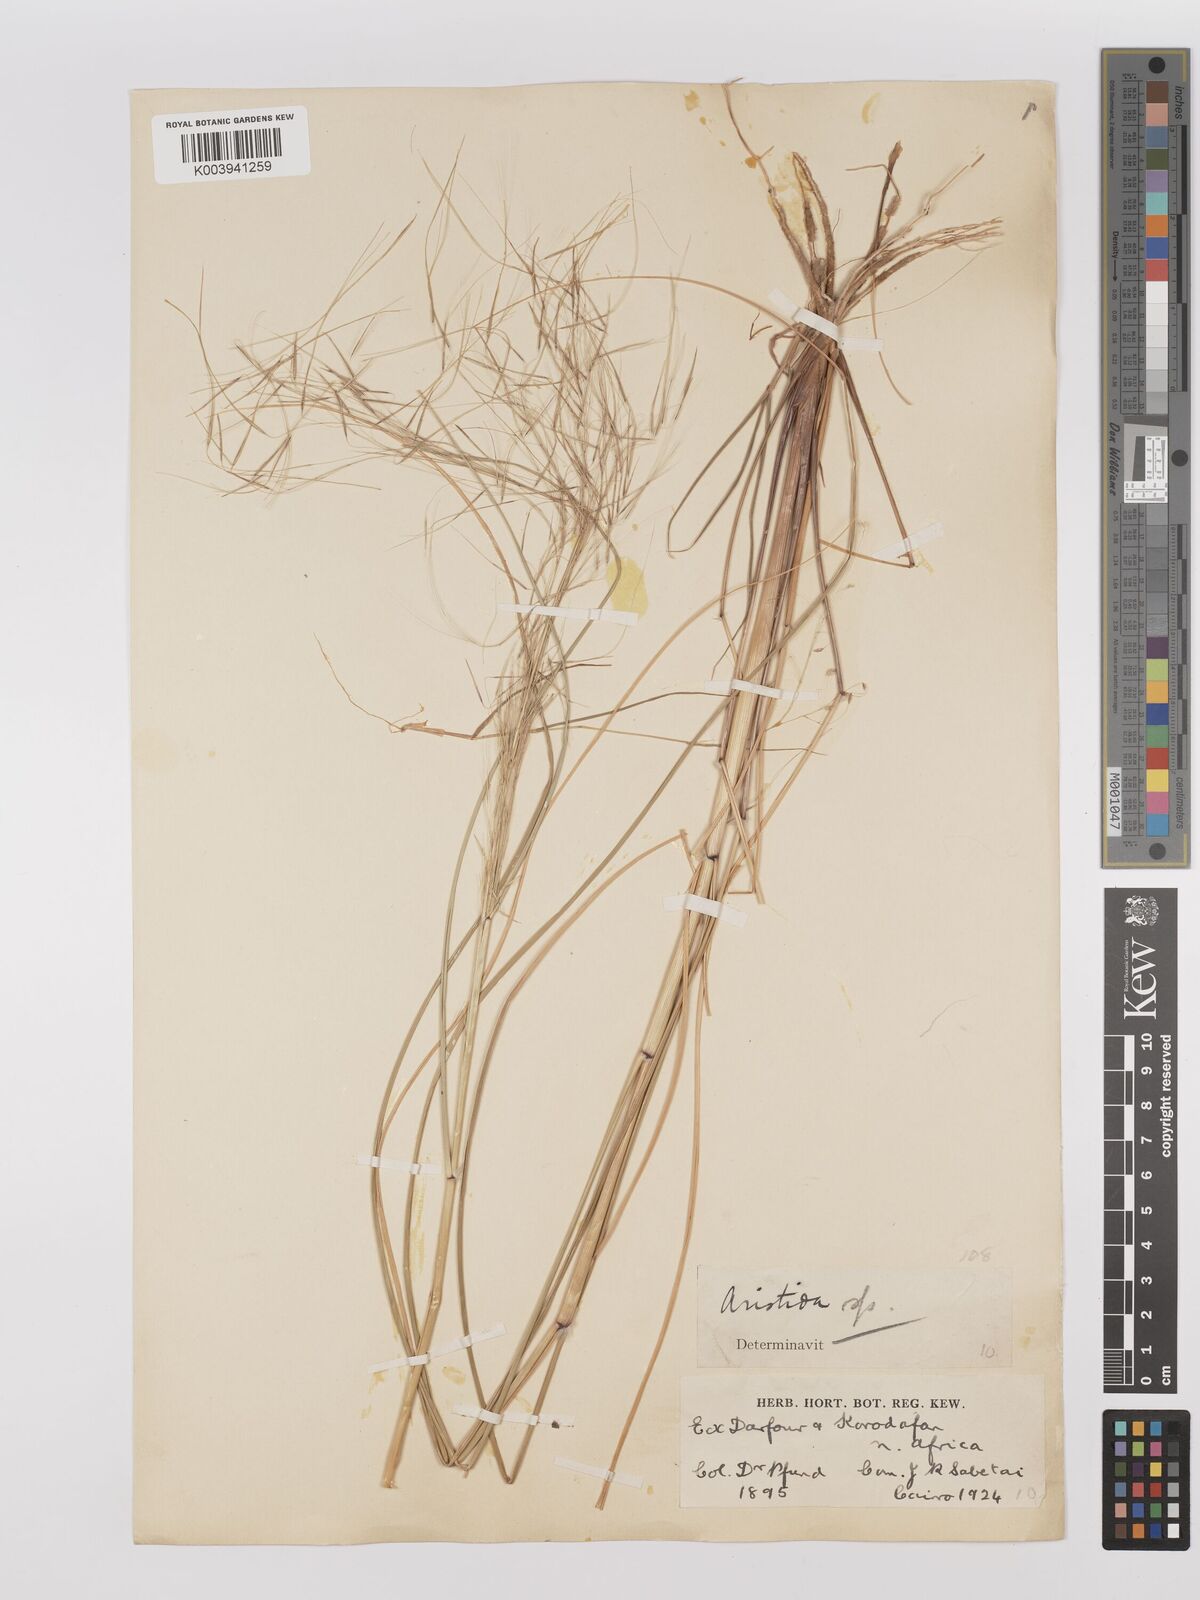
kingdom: Plantae
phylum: Tracheophyta
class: Liliopsida
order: Poales
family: Poaceae
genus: Stipagrostis
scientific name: Stipagrostis
